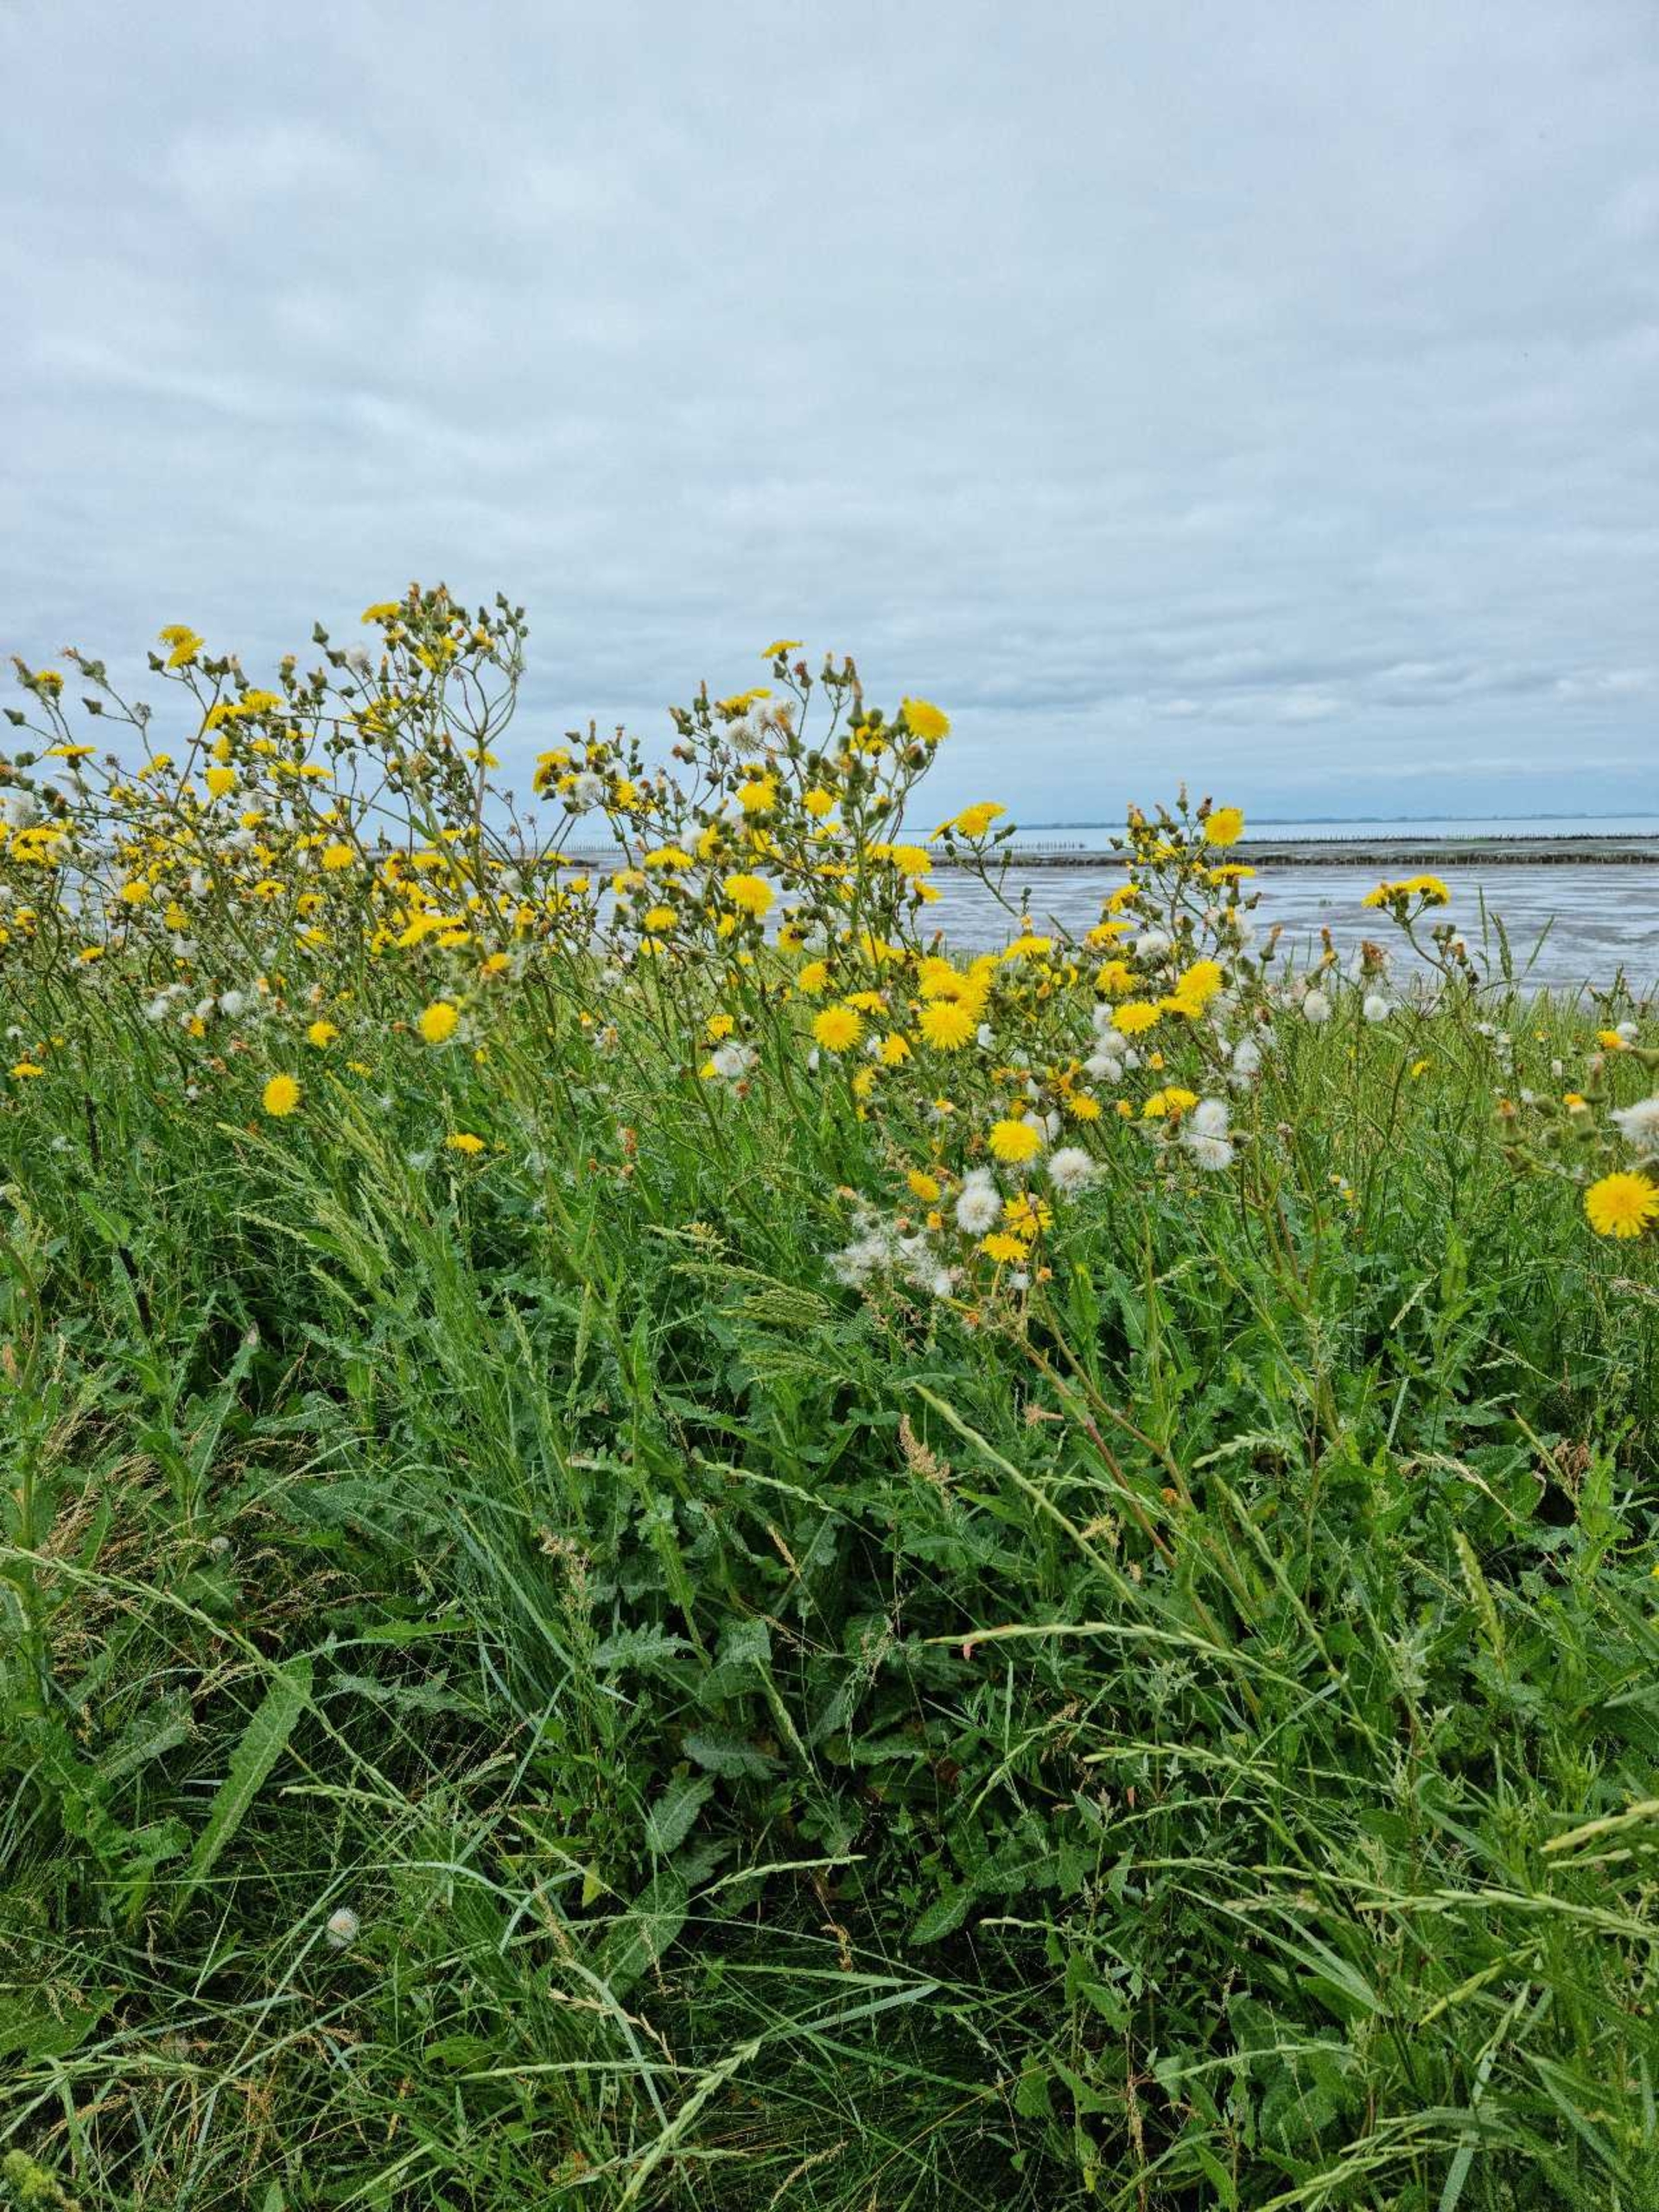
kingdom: Plantae
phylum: Tracheophyta
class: Magnoliopsida
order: Asterales
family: Asteraceae
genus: Sonchus
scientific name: Sonchus arvensis
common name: Ager-svinemælk
